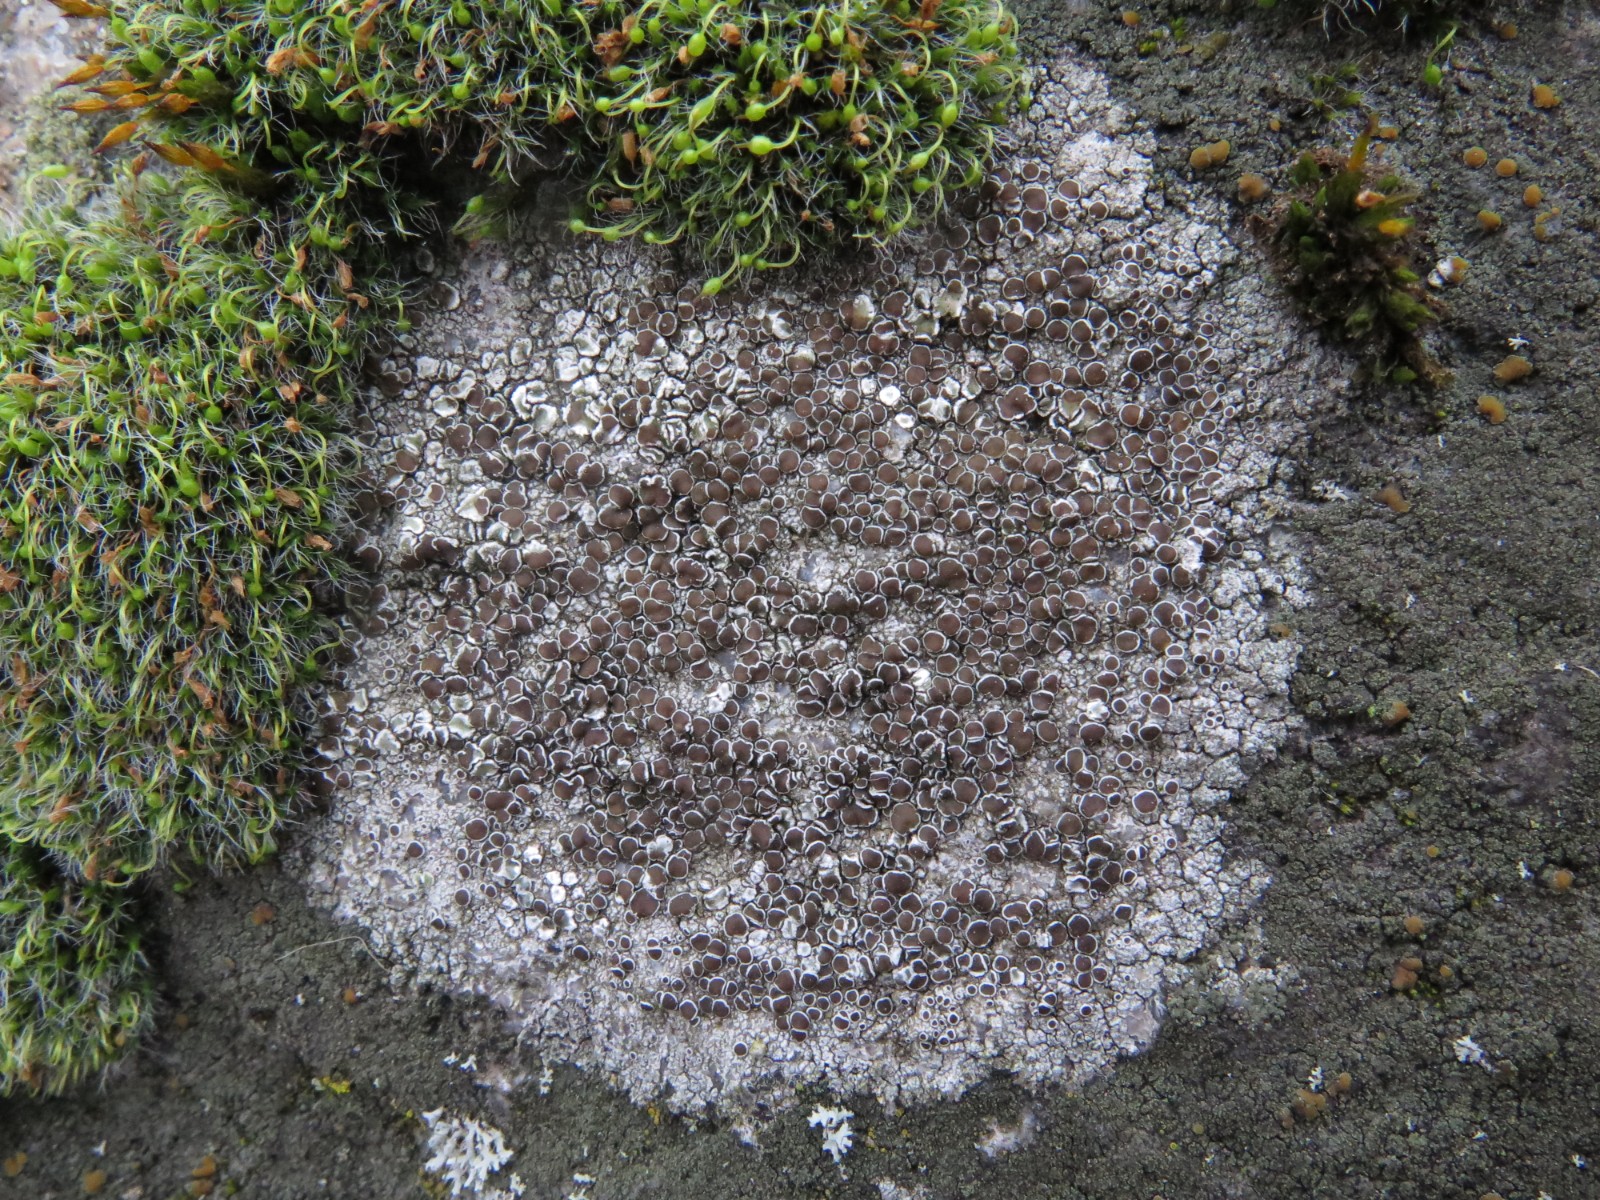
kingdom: Fungi
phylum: Ascomycota
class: Lecanoromycetes
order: Lecanorales
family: Lecanoraceae
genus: Lecanora
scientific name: Lecanora campestris
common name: mur-kantskivelav
